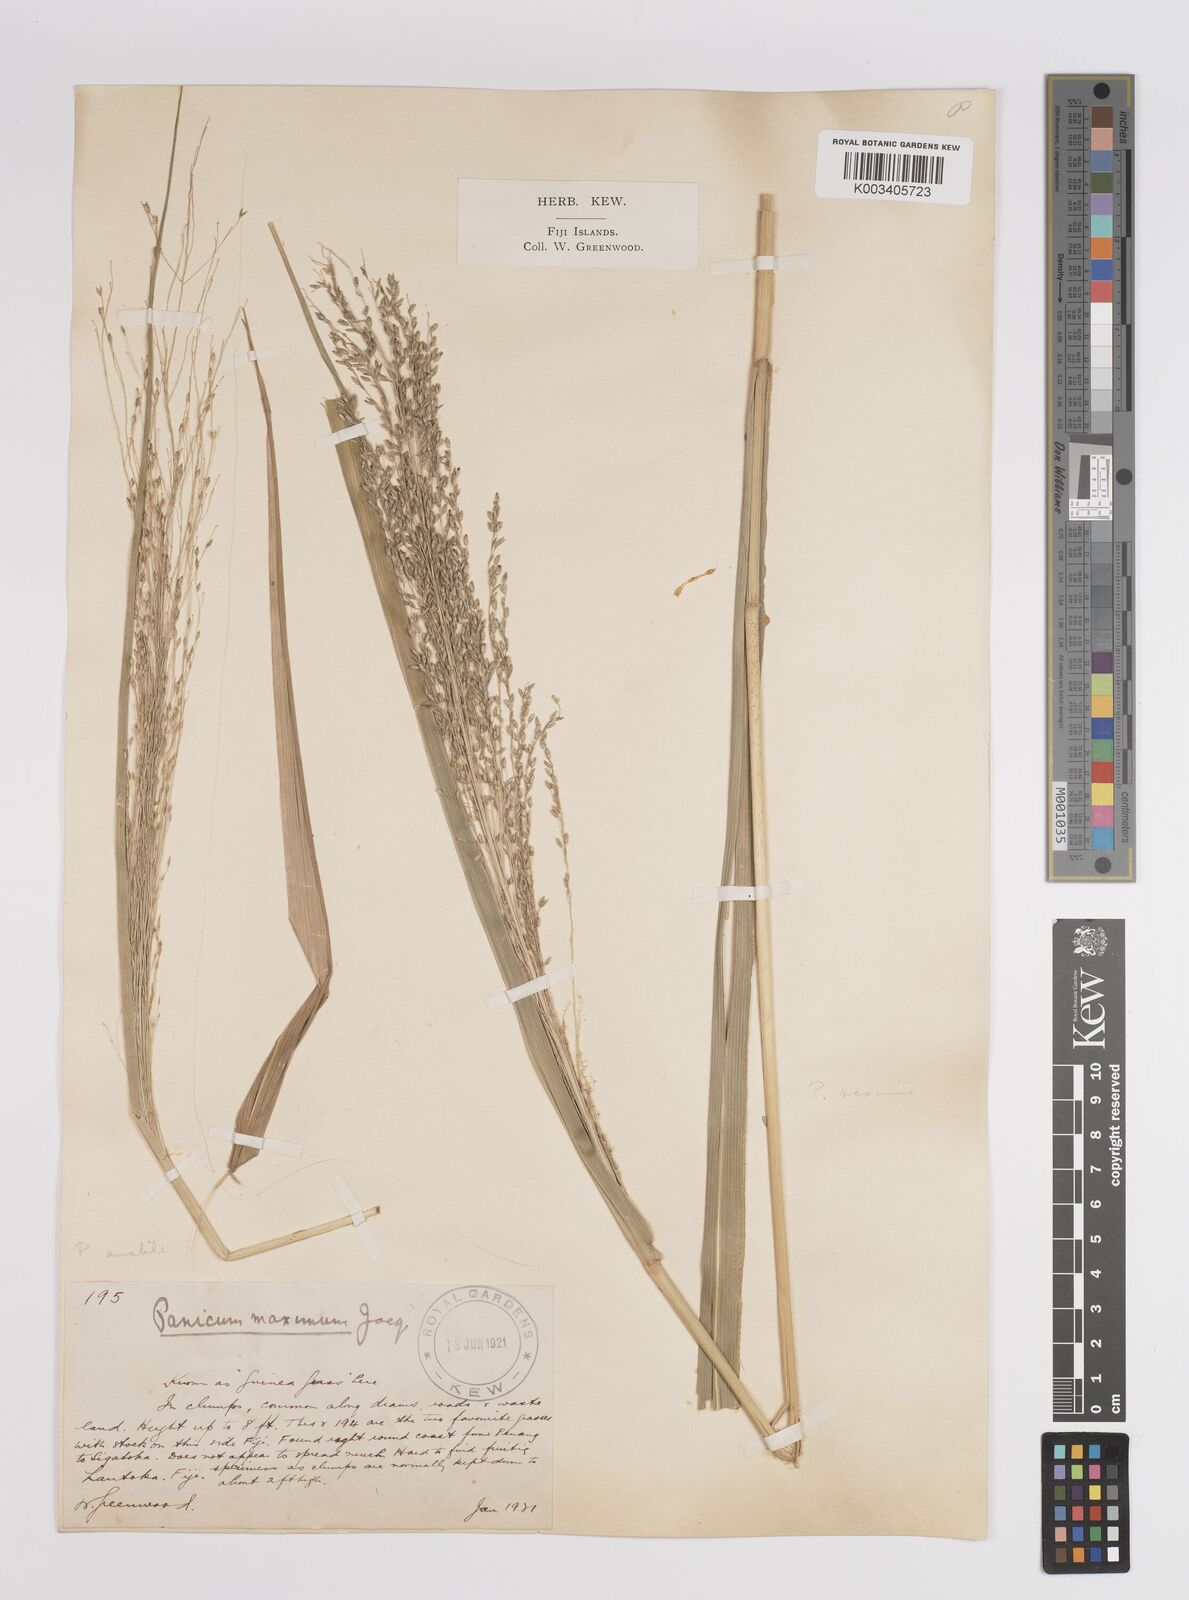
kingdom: Plantae
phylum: Tracheophyta
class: Liliopsida
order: Poales
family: Poaceae
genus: Megathyrsus
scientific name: Megathyrsus maximus
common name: Guineagrass
